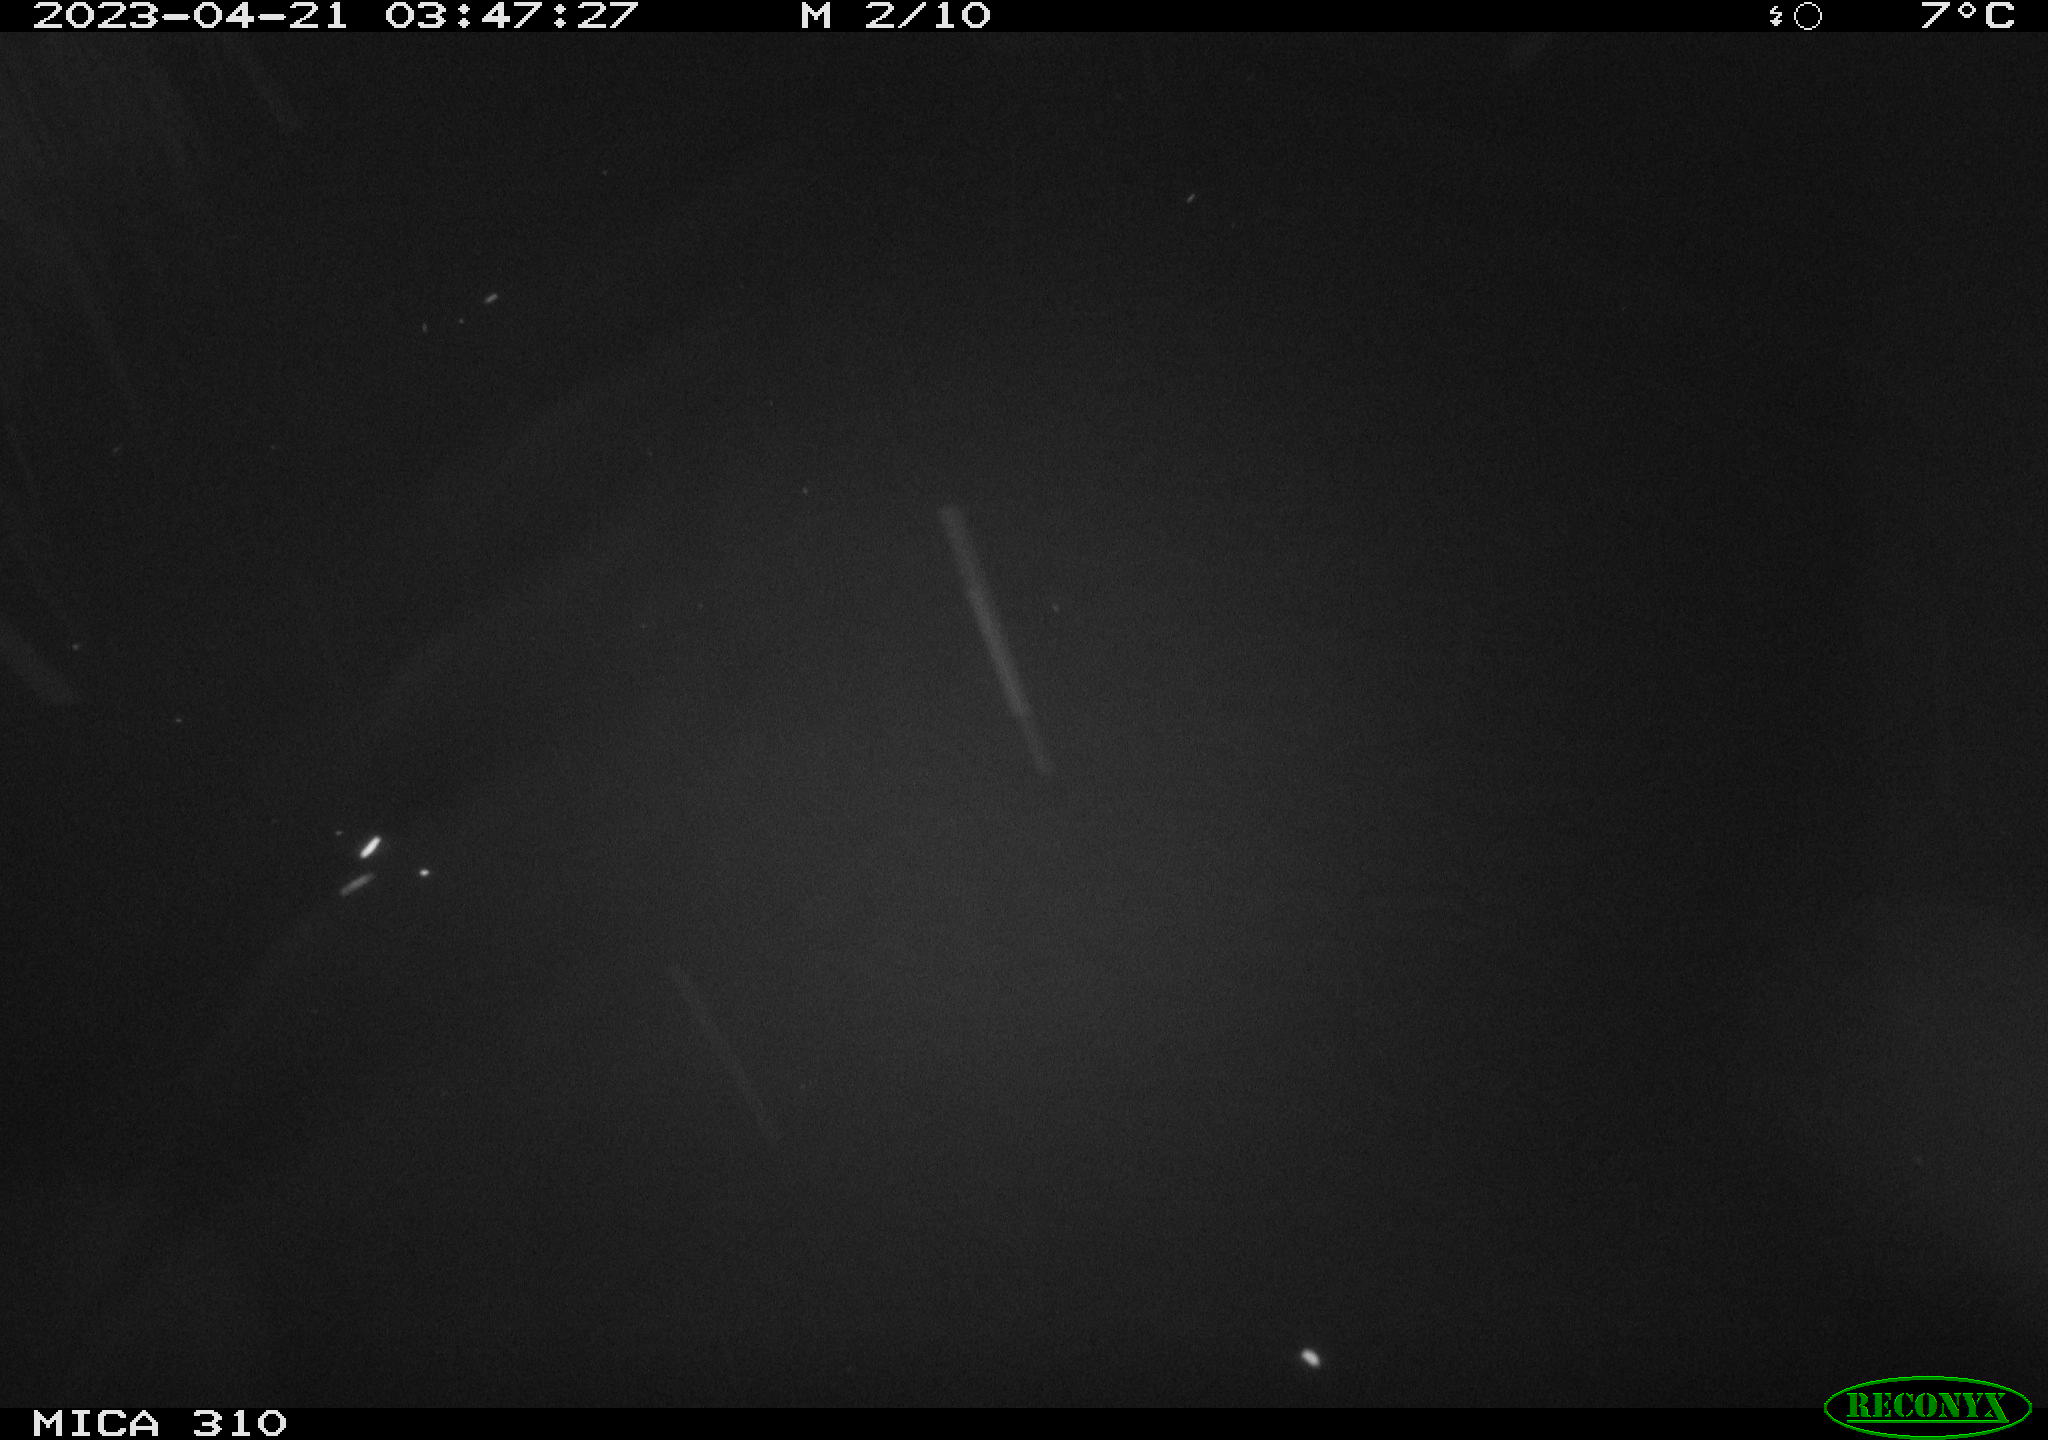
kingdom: Animalia
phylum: Chordata
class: Aves
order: Anseriformes
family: Anatidae
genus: Anas
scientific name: Anas
